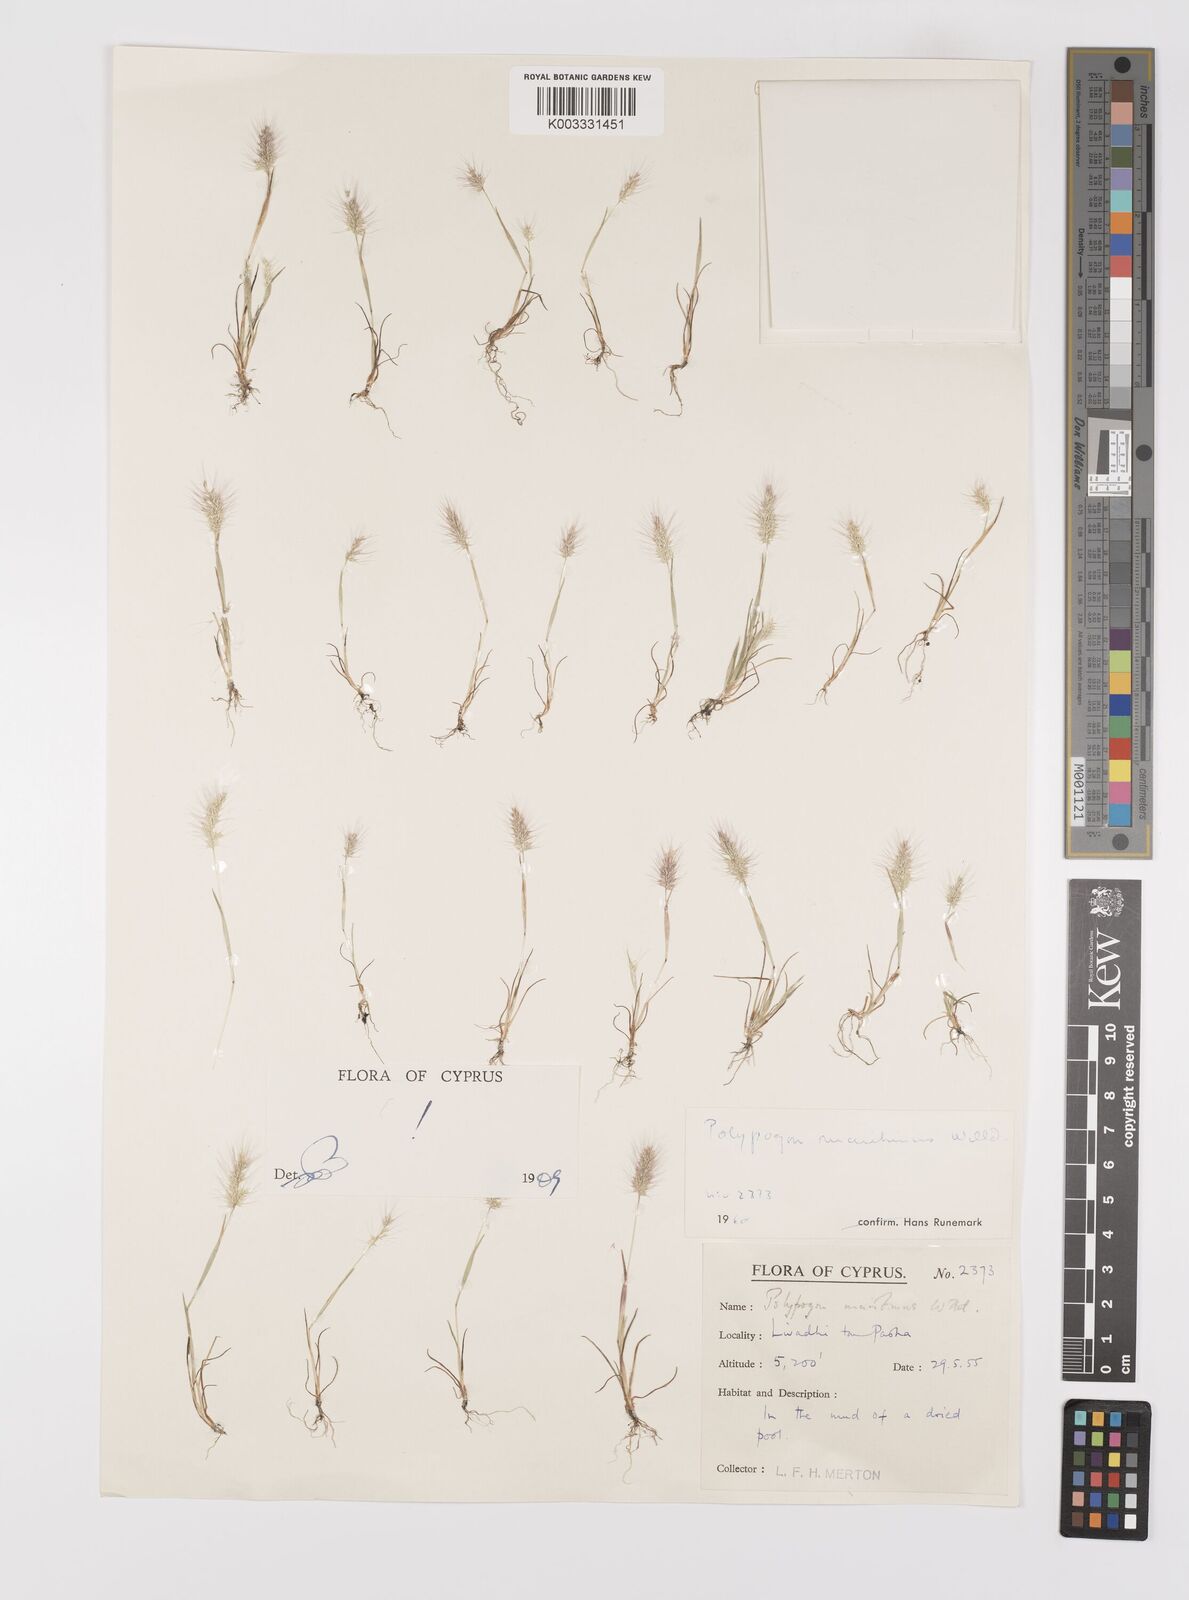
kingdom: Plantae
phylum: Tracheophyta
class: Liliopsida
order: Poales
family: Poaceae
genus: Polypogon
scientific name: Polypogon maritimus
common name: Mediterranean rabbitsfoot grass
